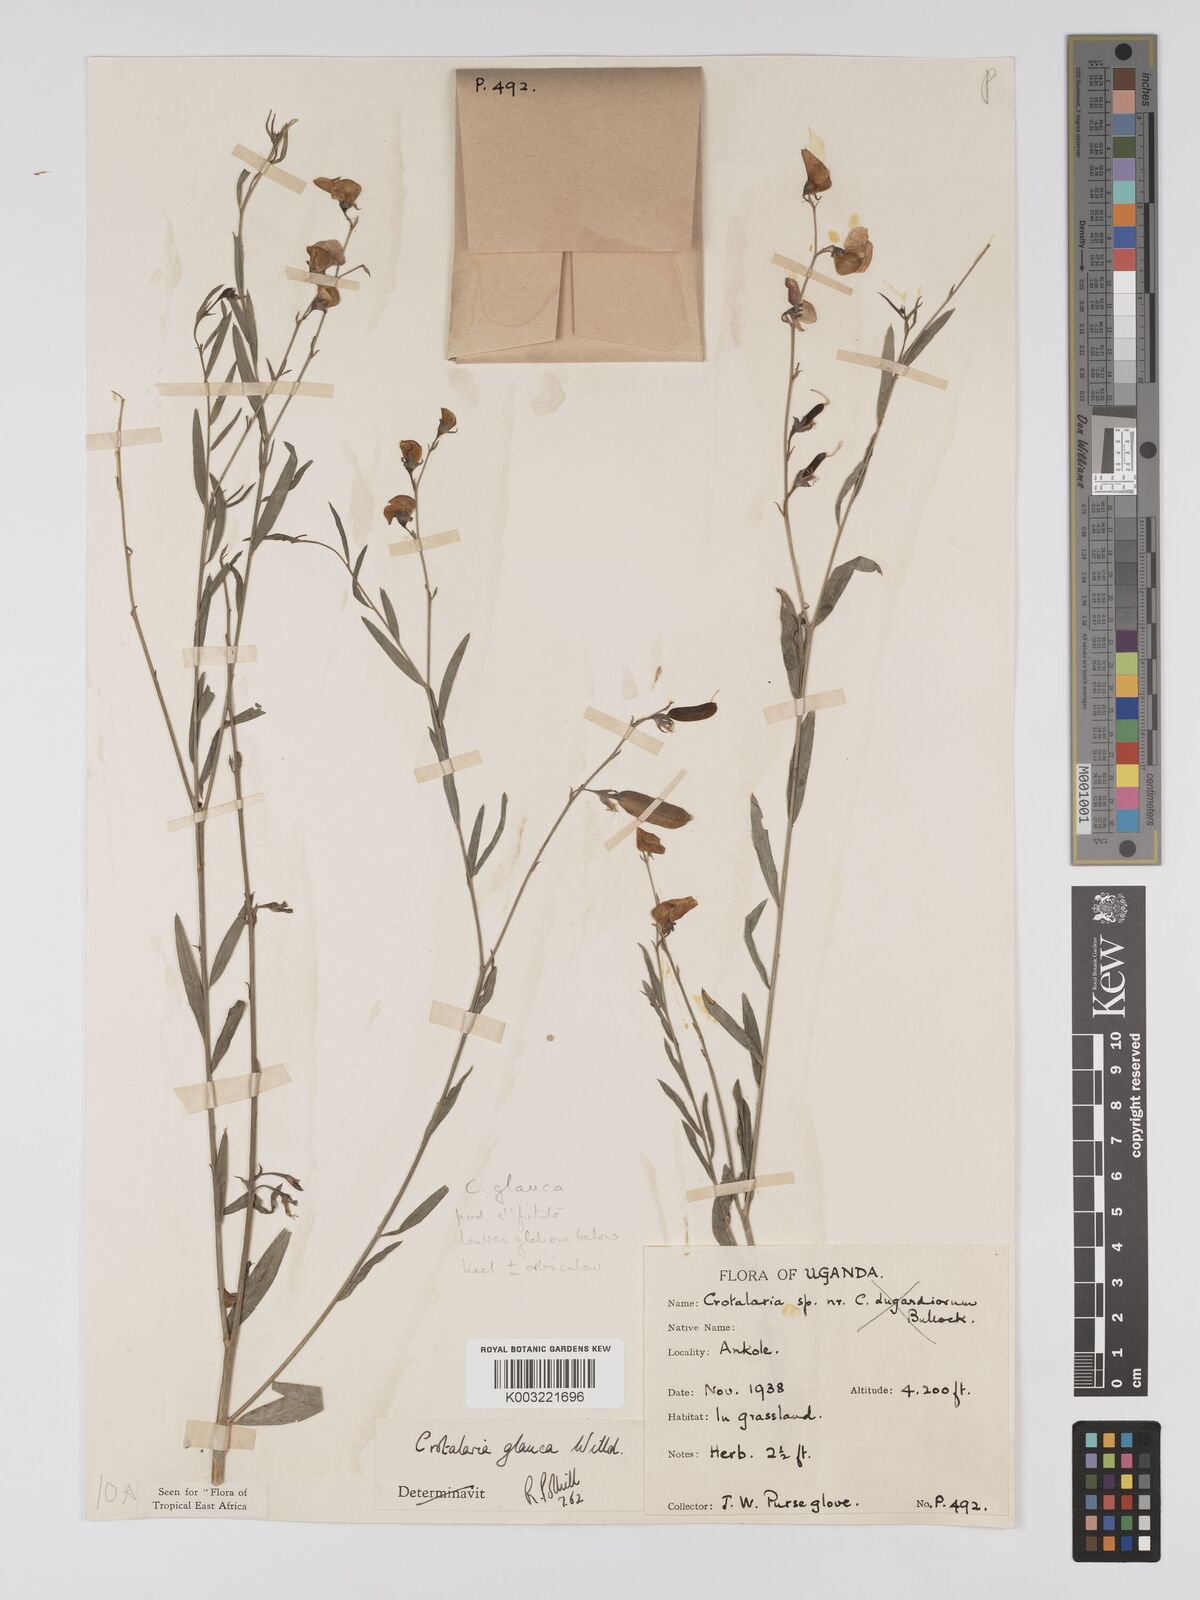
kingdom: Plantae
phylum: Tracheophyta
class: Magnoliopsida
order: Fabales
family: Fabaceae
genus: Crotalaria
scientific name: Crotalaria glauca
